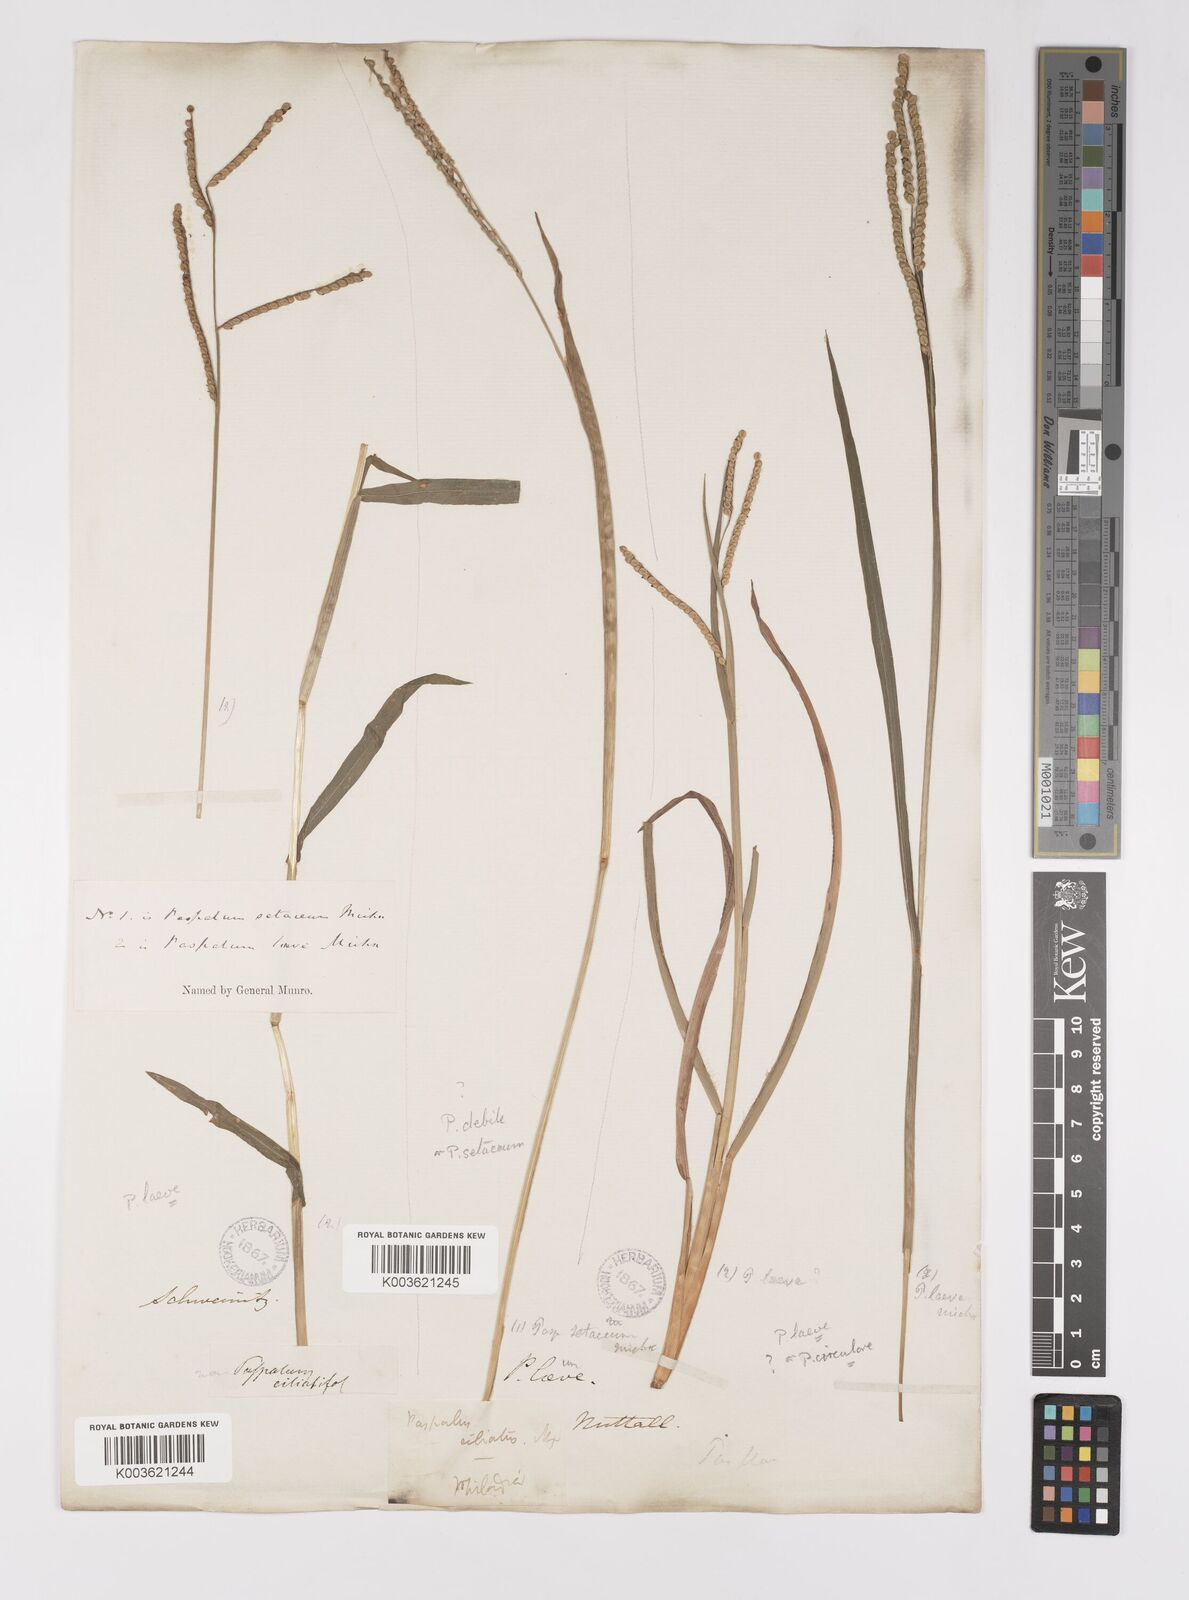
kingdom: Plantae
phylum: Tracheophyta
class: Liliopsida
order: Poales
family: Poaceae
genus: Paspalum
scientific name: Paspalum setaceum
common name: Slender paspalum
